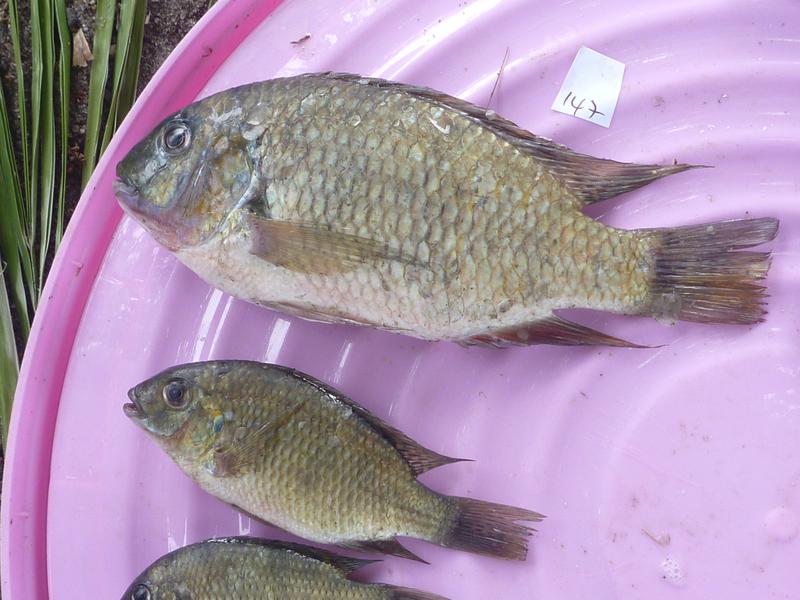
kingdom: Animalia
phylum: Chordata
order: Perciformes
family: Cichlidae
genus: Coptodon
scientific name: Coptodon rendalli
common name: Redbreast tilapia
